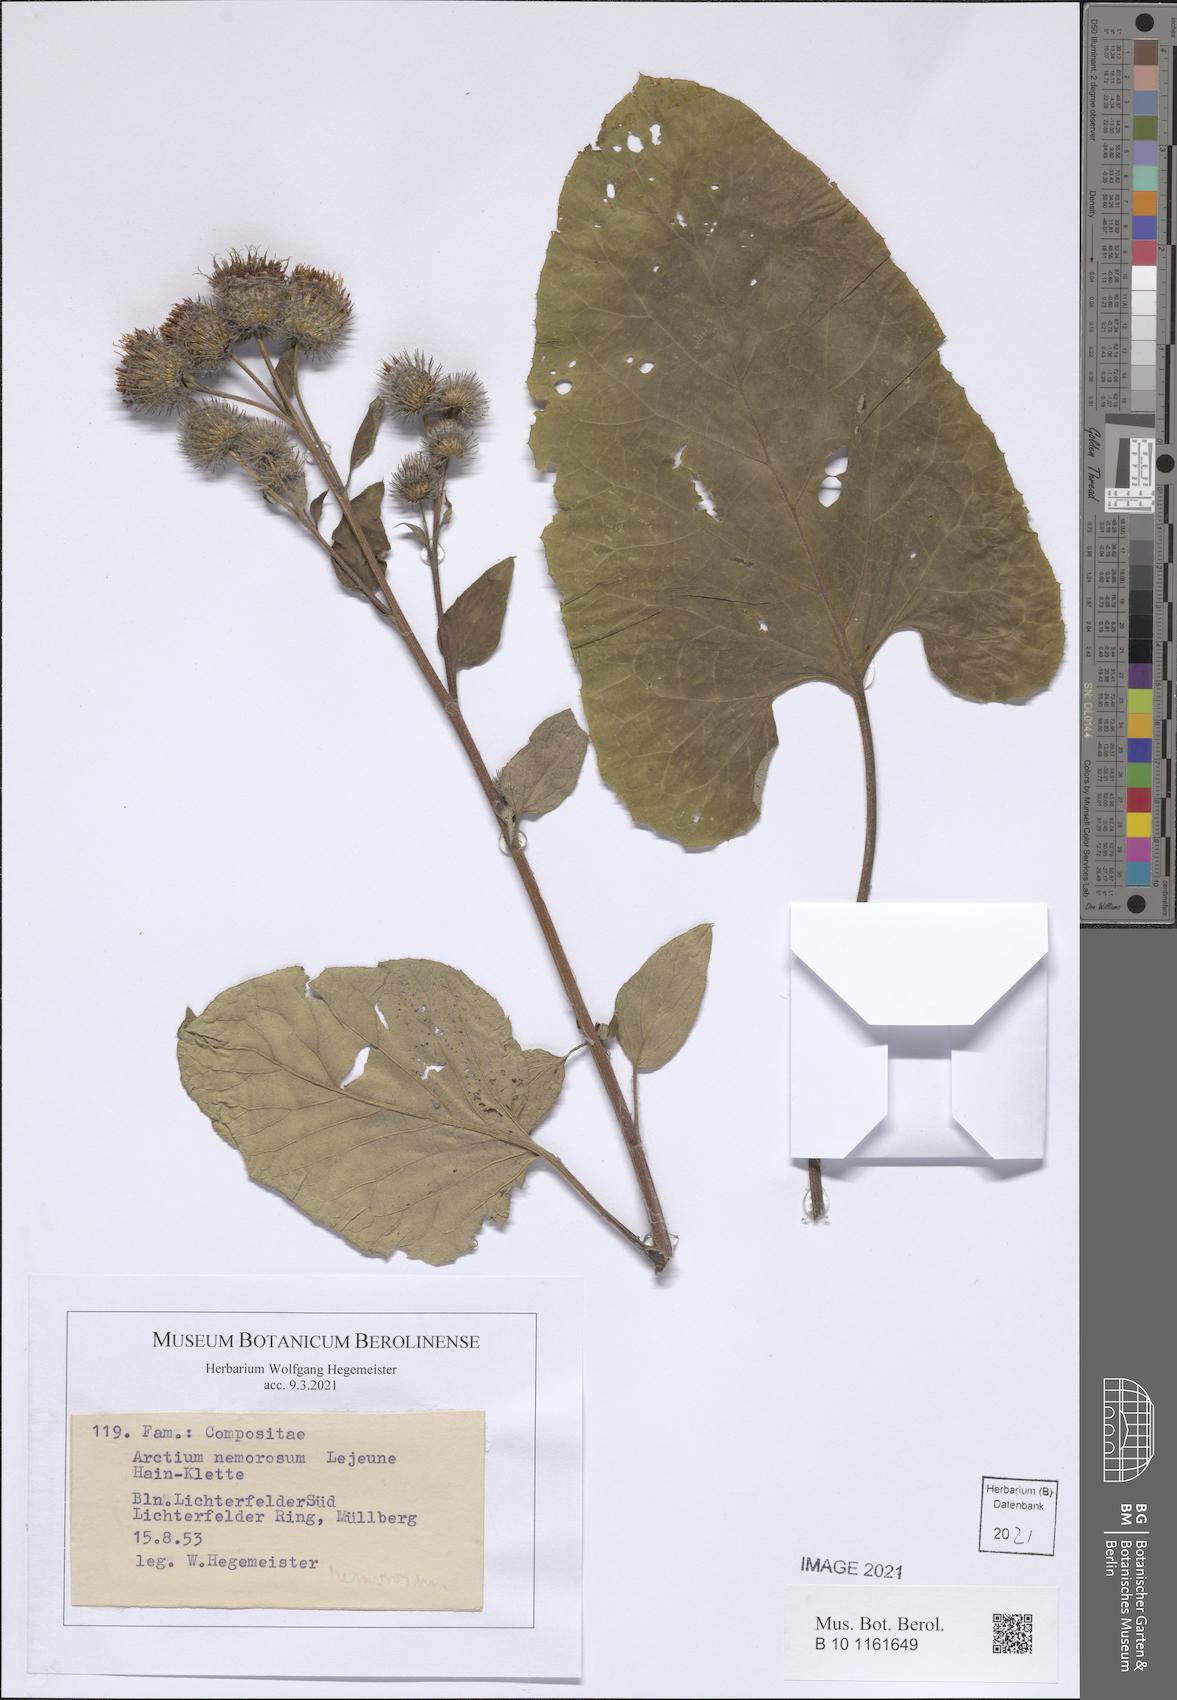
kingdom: Plantae
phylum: Tracheophyta
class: Magnoliopsida
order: Asterales
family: Asteraceae
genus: Arctium
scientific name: Arctium nemorosum
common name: Wood burdock
